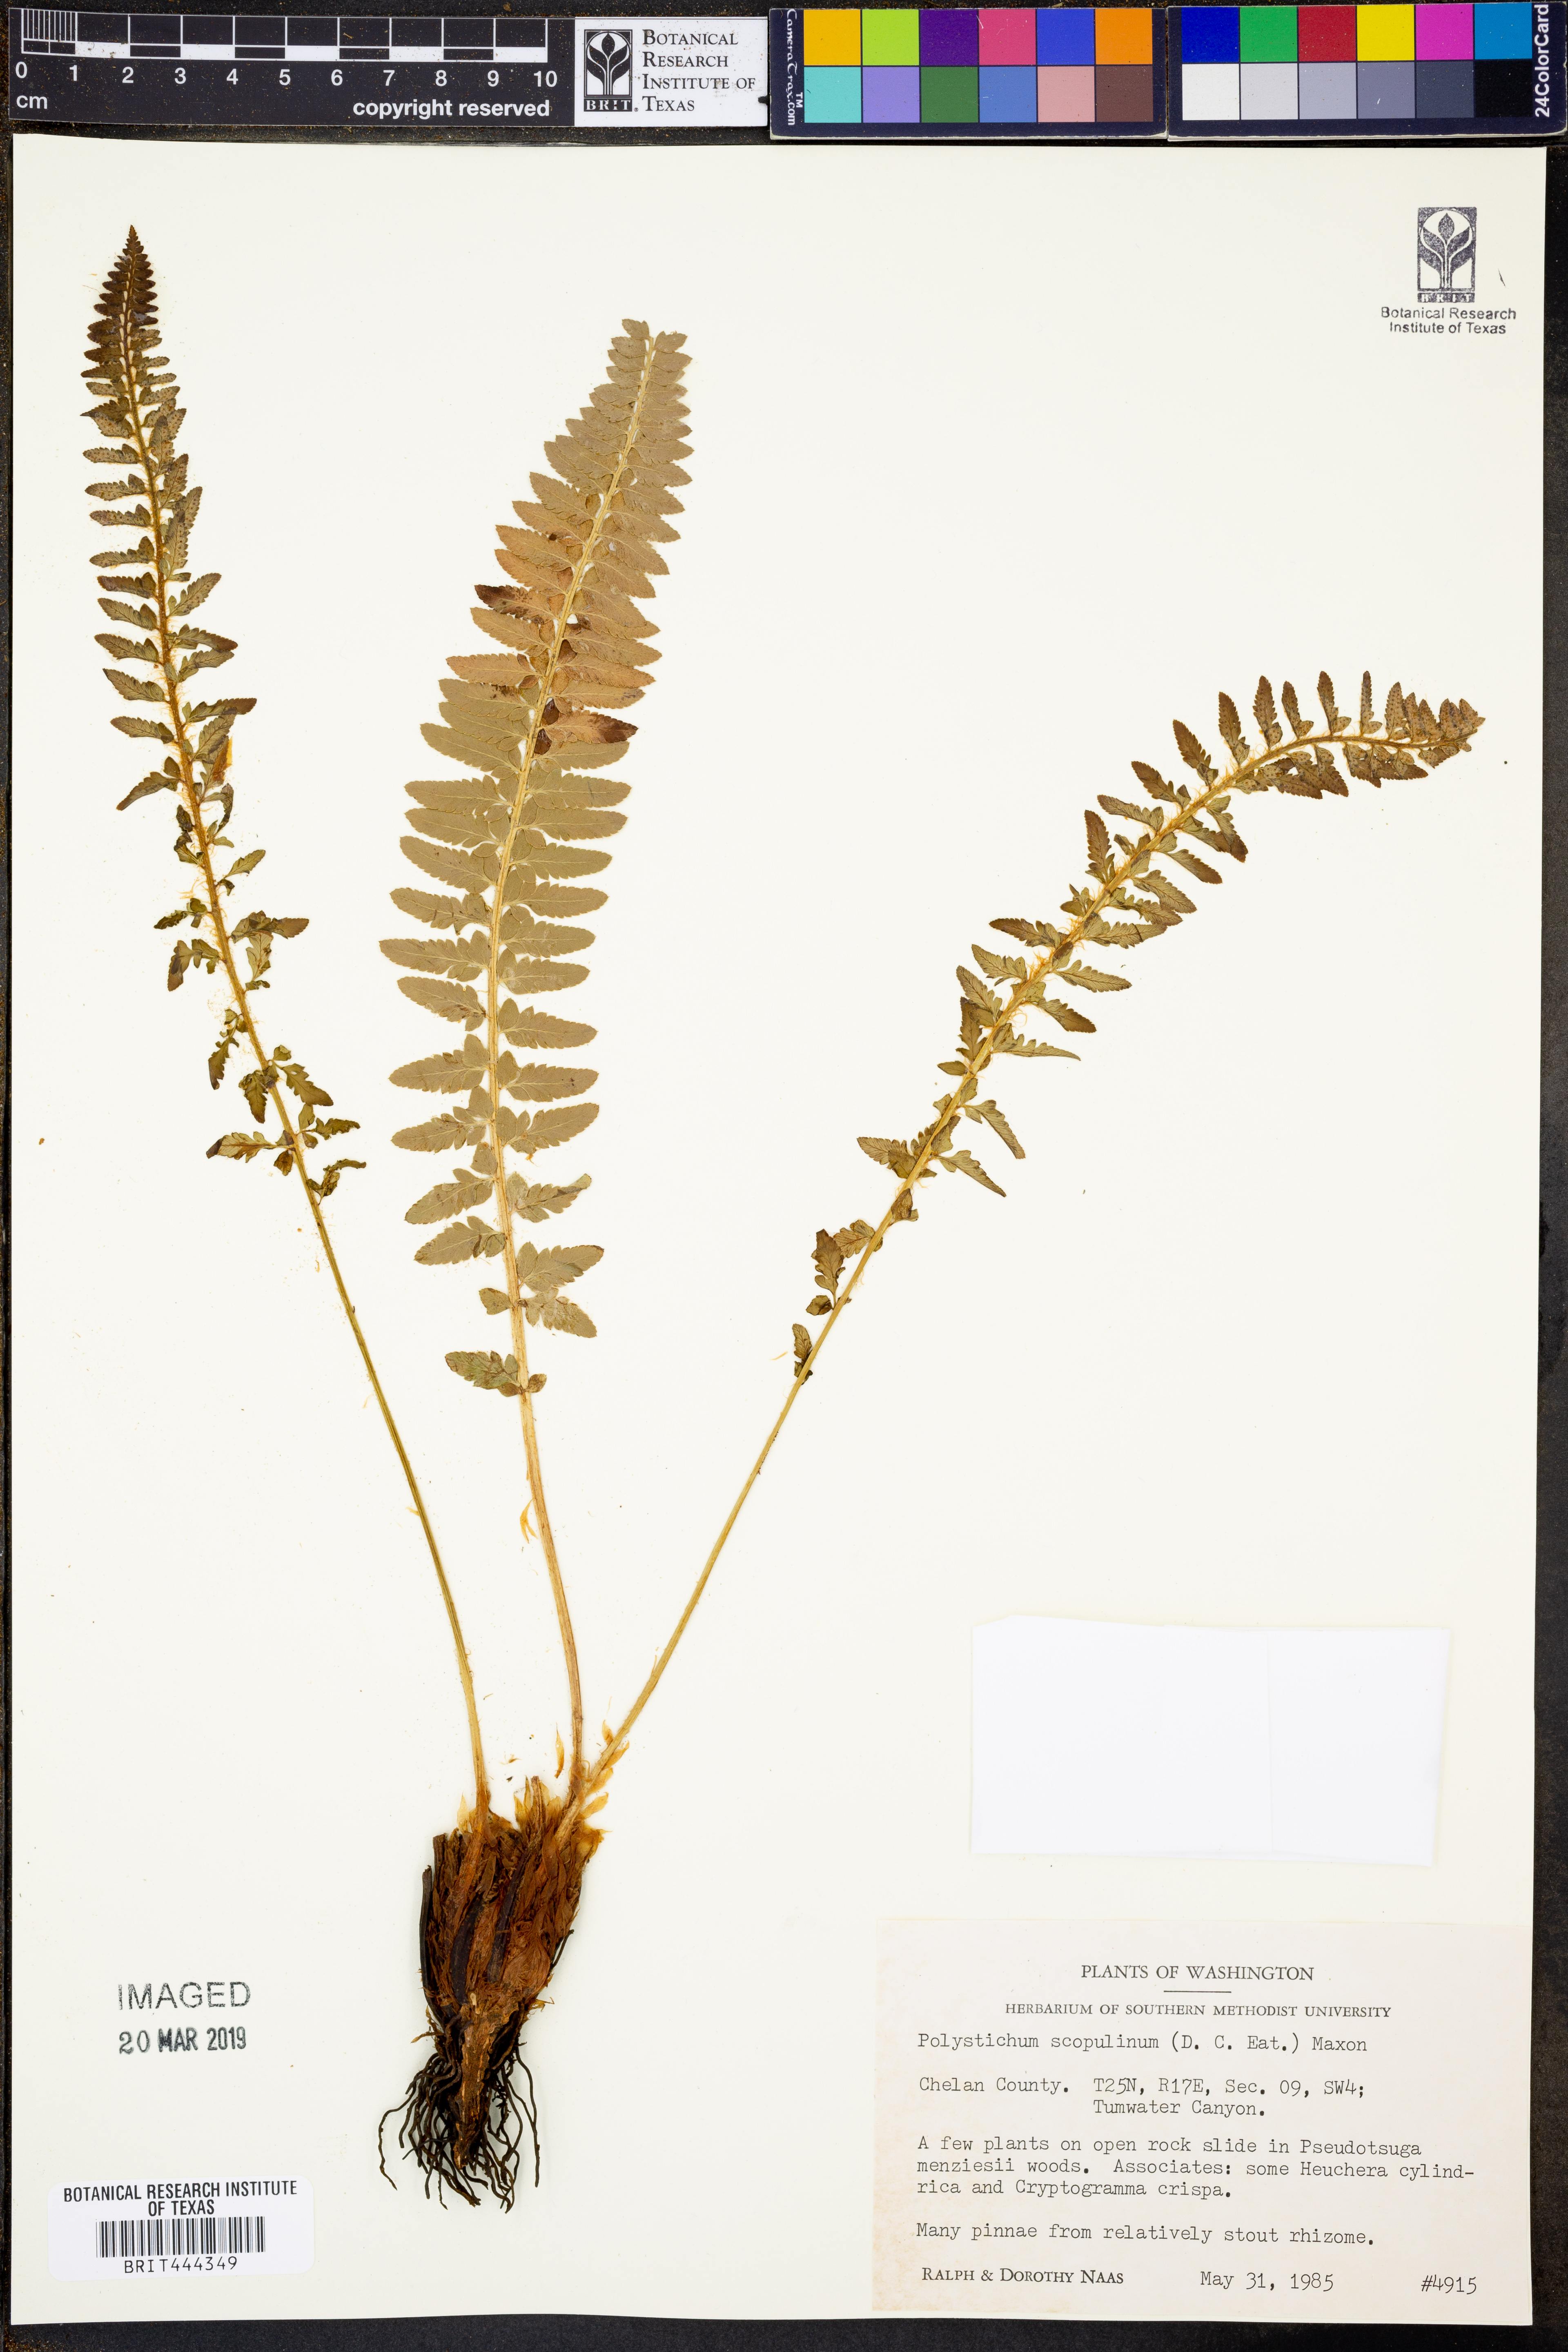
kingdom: Plantae
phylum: Tracheophyta
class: Polypodiopsida
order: Polypodiales
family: Dryopteridaceae
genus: Polystichum
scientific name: Polystichum scopulinum
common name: Eaton's shield fern
